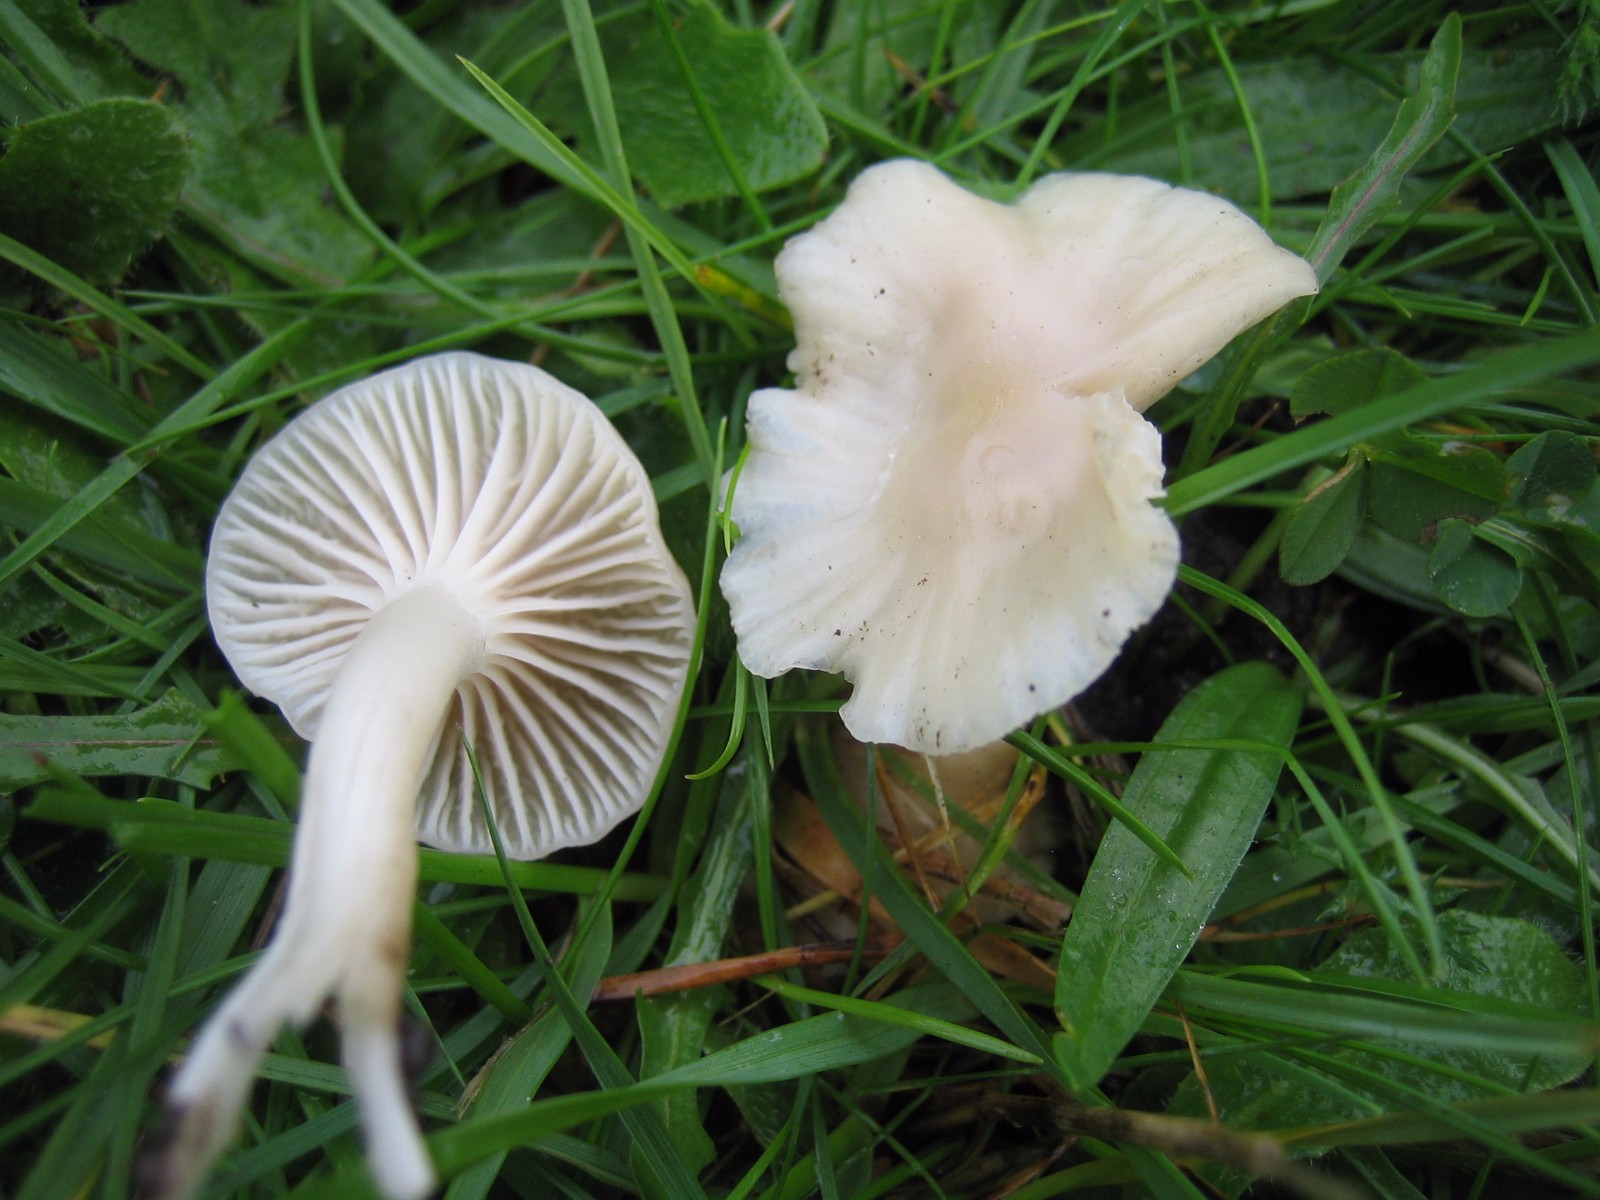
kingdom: Fungi
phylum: Basidiomycota
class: Agaricomycetes
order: Agaricales
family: Hygrophoraceae
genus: Cuphophyllus
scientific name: Cuphophyllus virgineus
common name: snehvid vokshat
